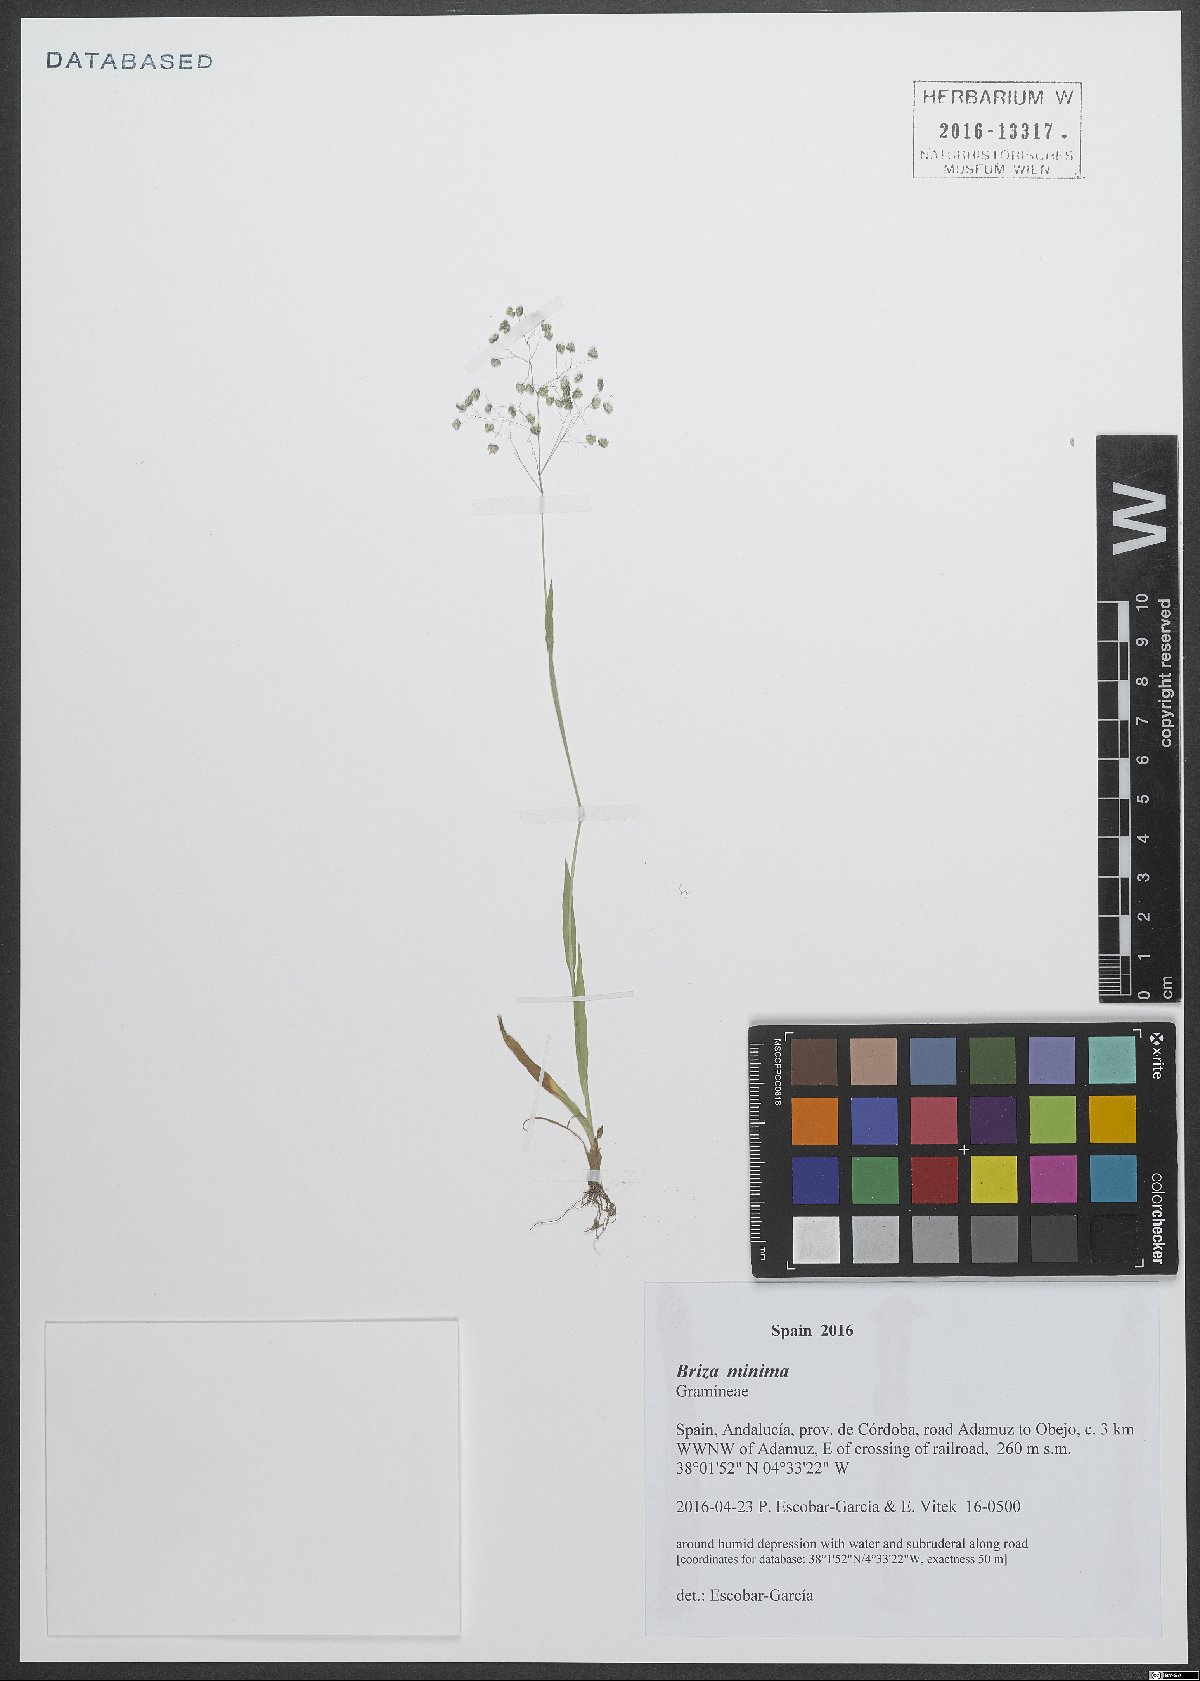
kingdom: Plantae
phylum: Tracheophyta
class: Liliopsida
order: Poales
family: Poaceae
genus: Briza
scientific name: Briza minor
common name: Lesser quaking-grass
